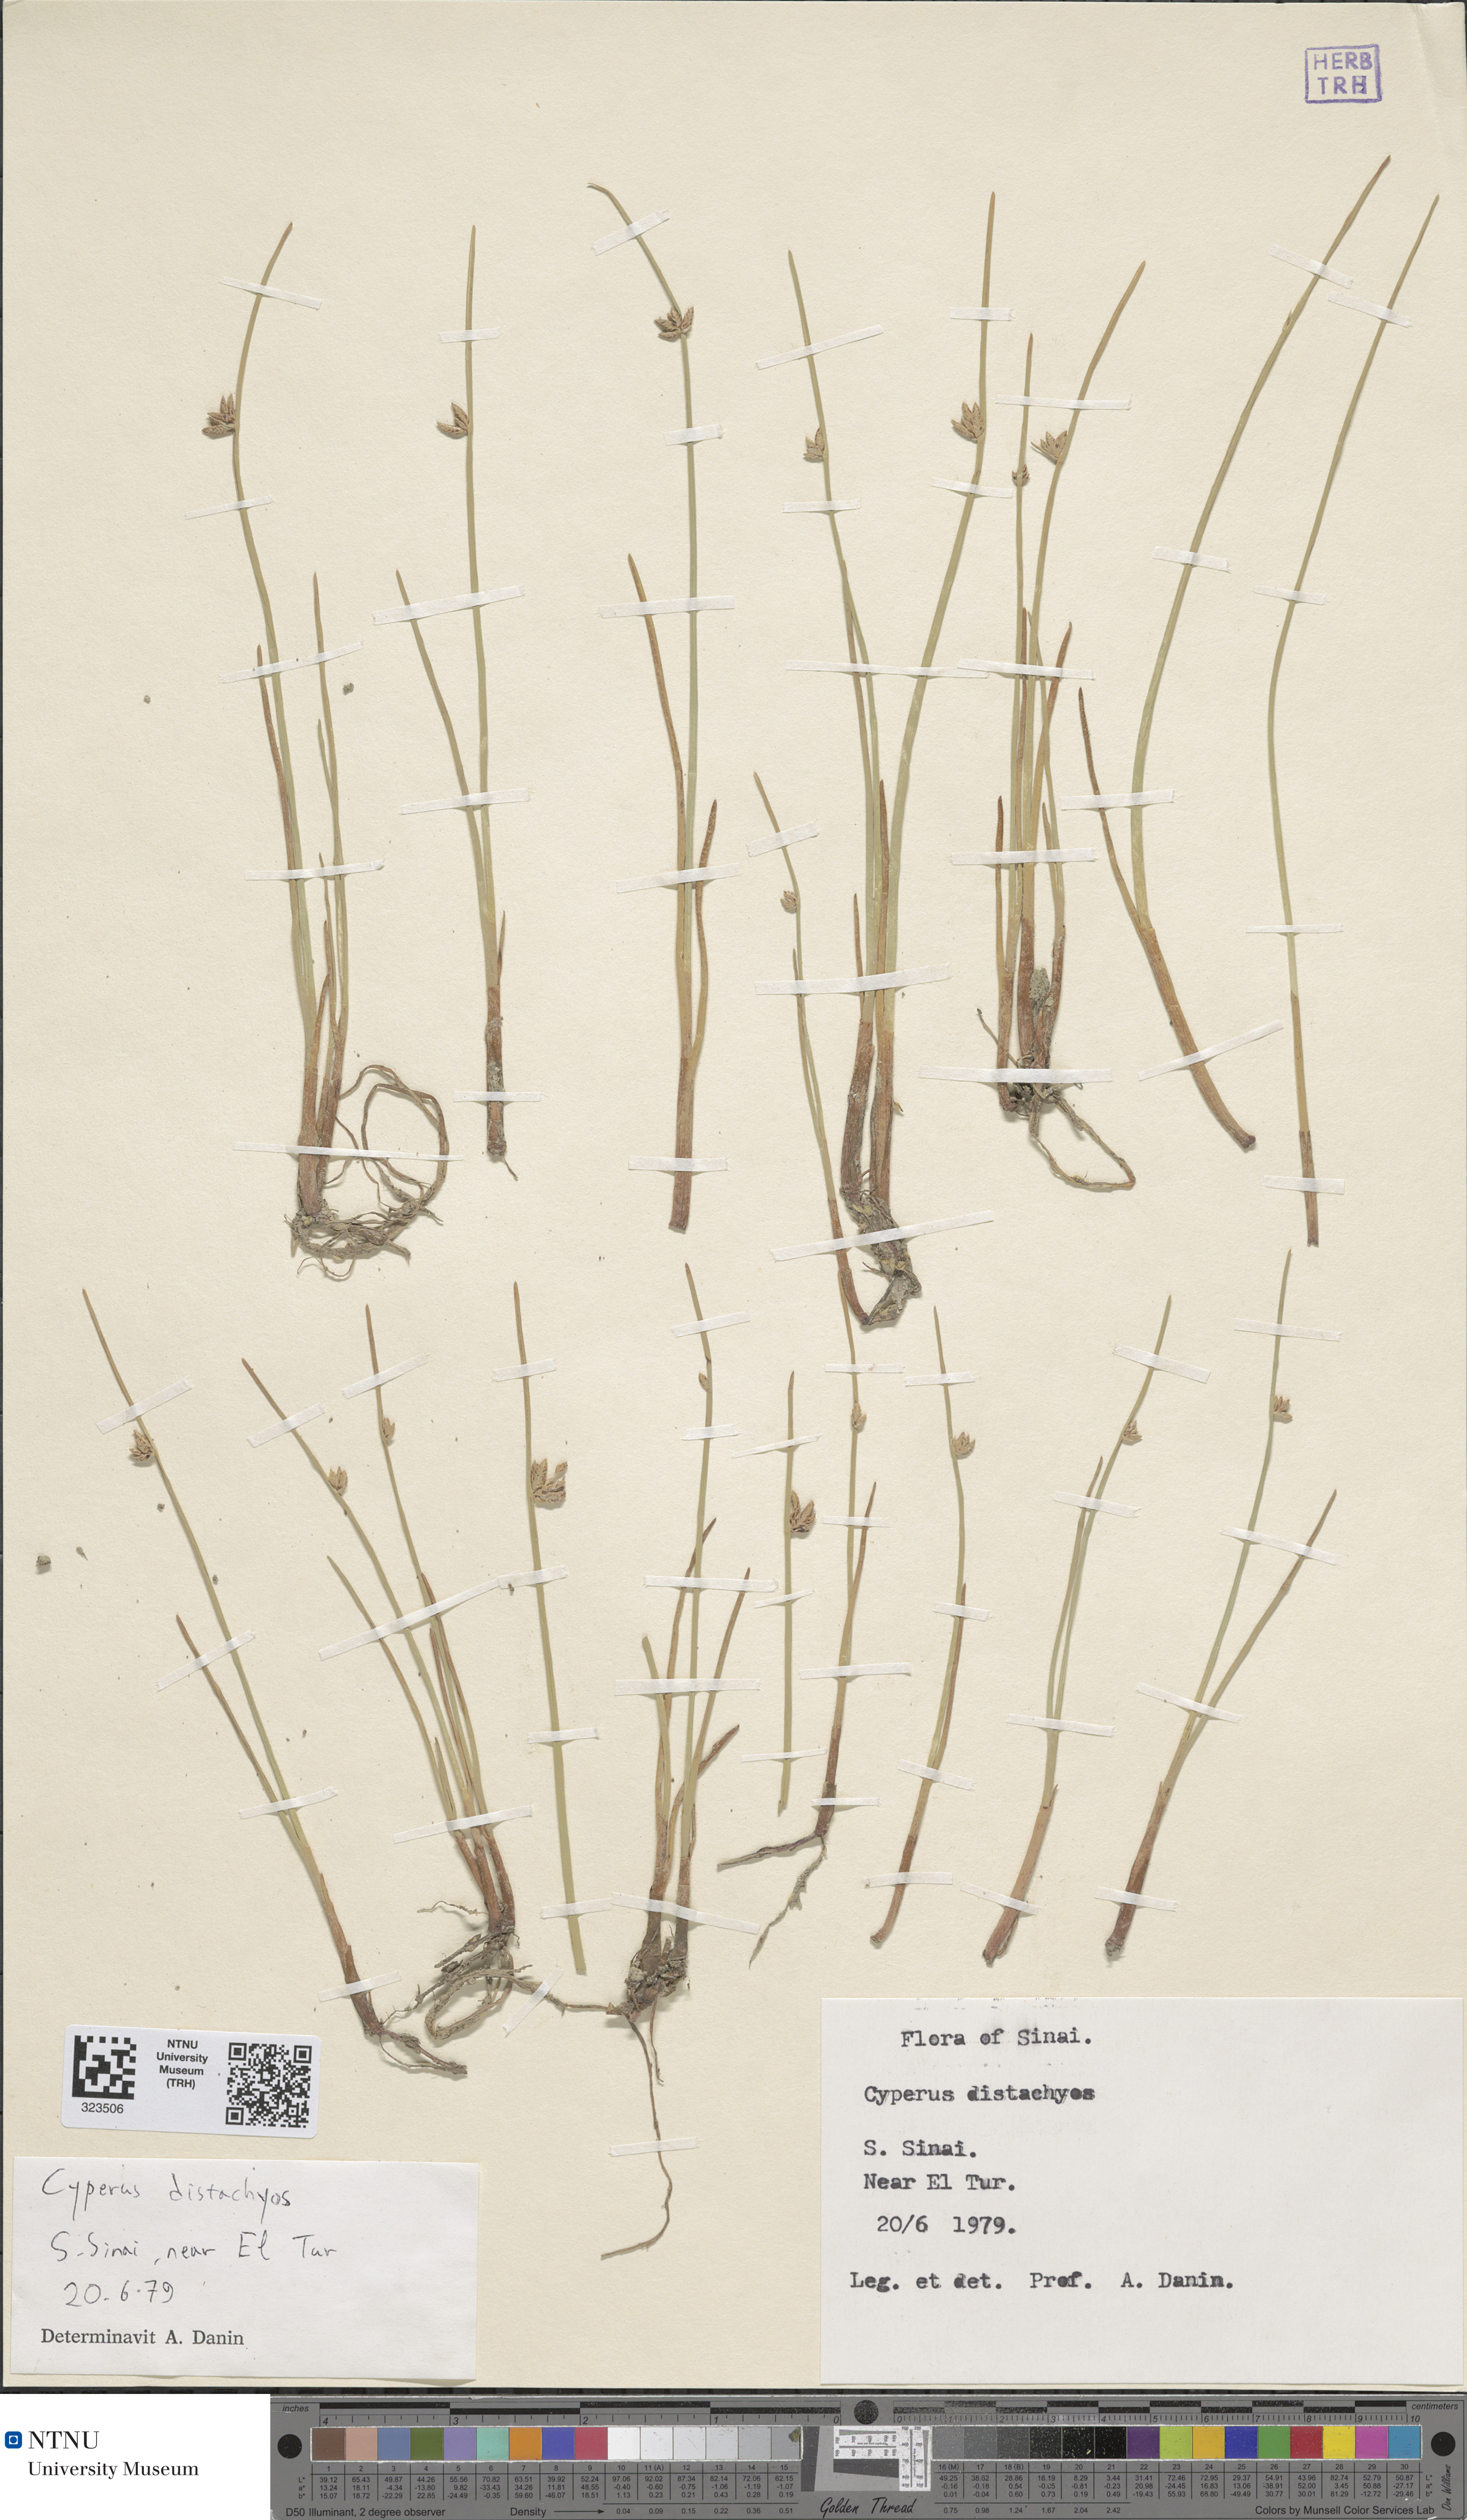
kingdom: Plantae
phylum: Tracheophyta
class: Liliopsida
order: Poales
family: Cyperaceae
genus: Cyperus
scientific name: Cyperus laevigatus
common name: Smooth flat sedge
